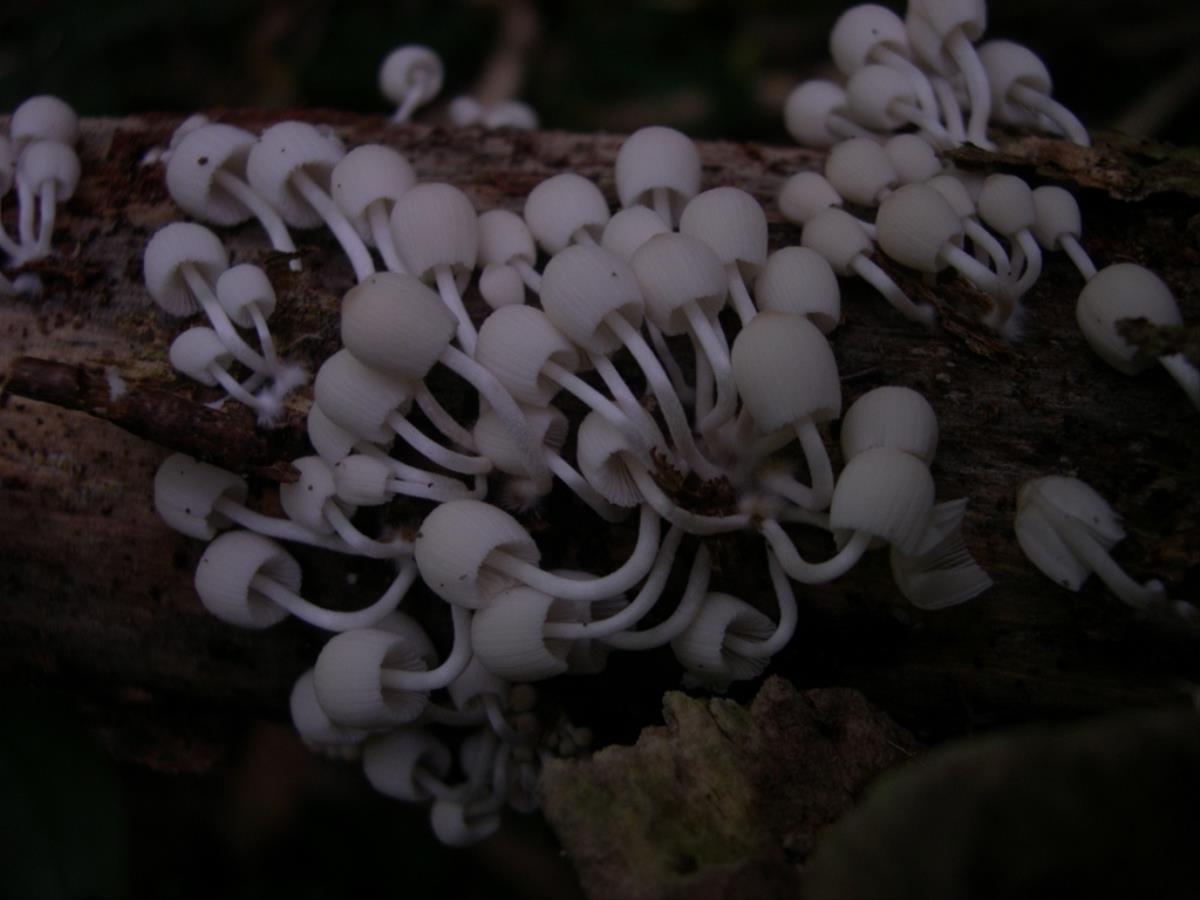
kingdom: Fungi
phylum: Basidiomycota
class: Agaricomycetes
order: Agaricales
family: Psathyrellaceae
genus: Coprinellus
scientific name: Coprinellus aureogranulatus
